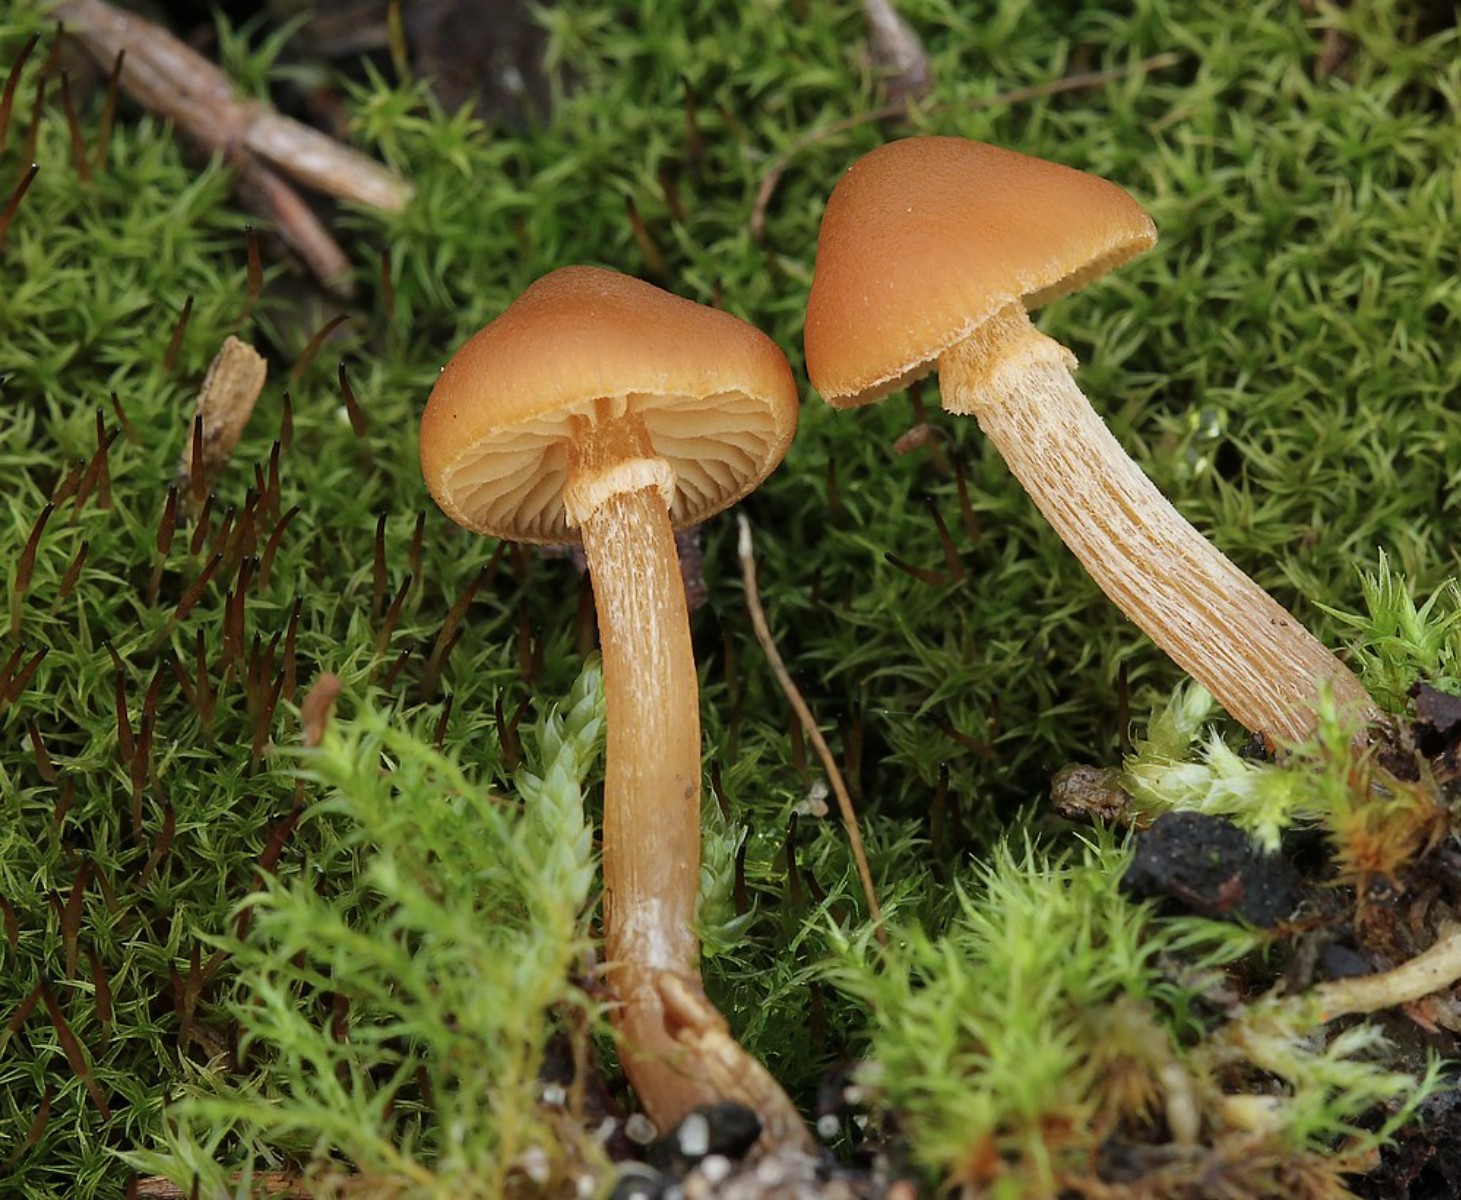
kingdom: Fungi
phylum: Basidiomycota
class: Agaricomycetes
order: Agaricales
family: Hymenogastraceae
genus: Galerina
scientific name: Galerina marginata
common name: randbæltet hjelmhat
